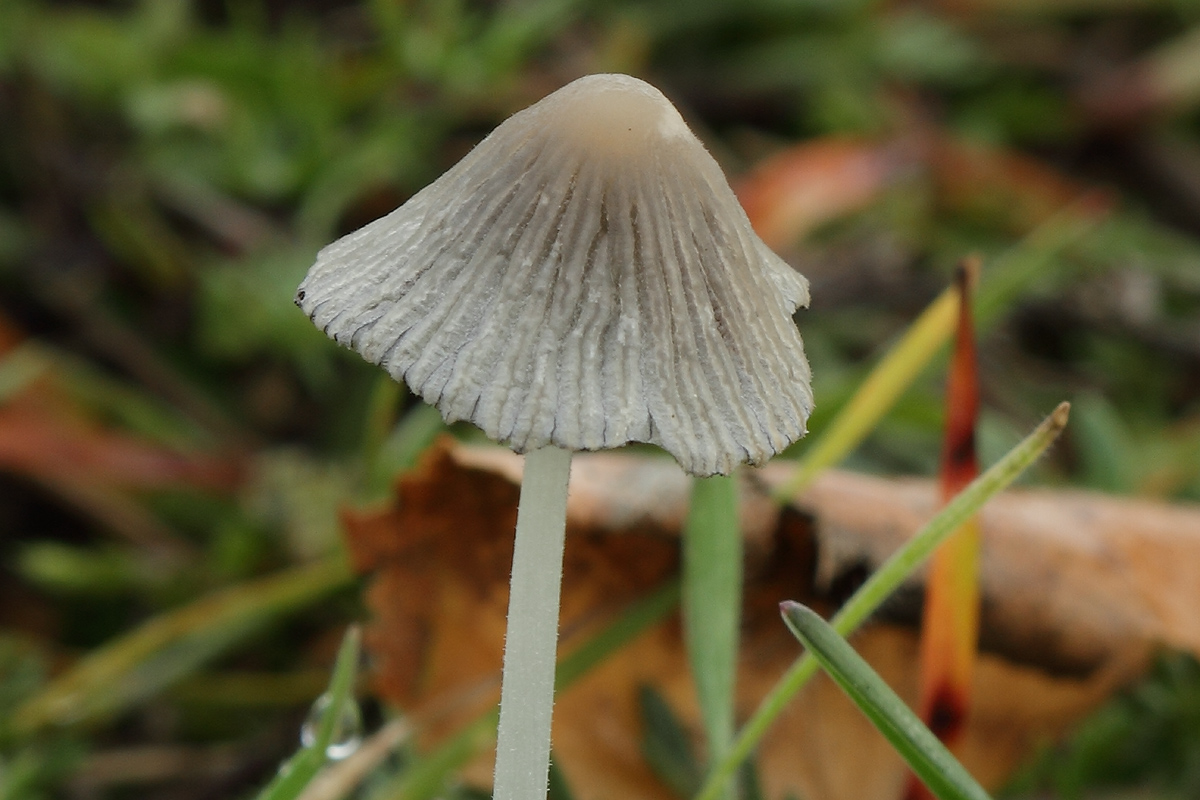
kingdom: Fungi
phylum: Basidiomycota
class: Agaricomycetes
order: Agaricales
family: Psathyrellaceae
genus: Tulosesus
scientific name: Tulosesus sclerocystidiosus
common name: brunhåret blækhat
